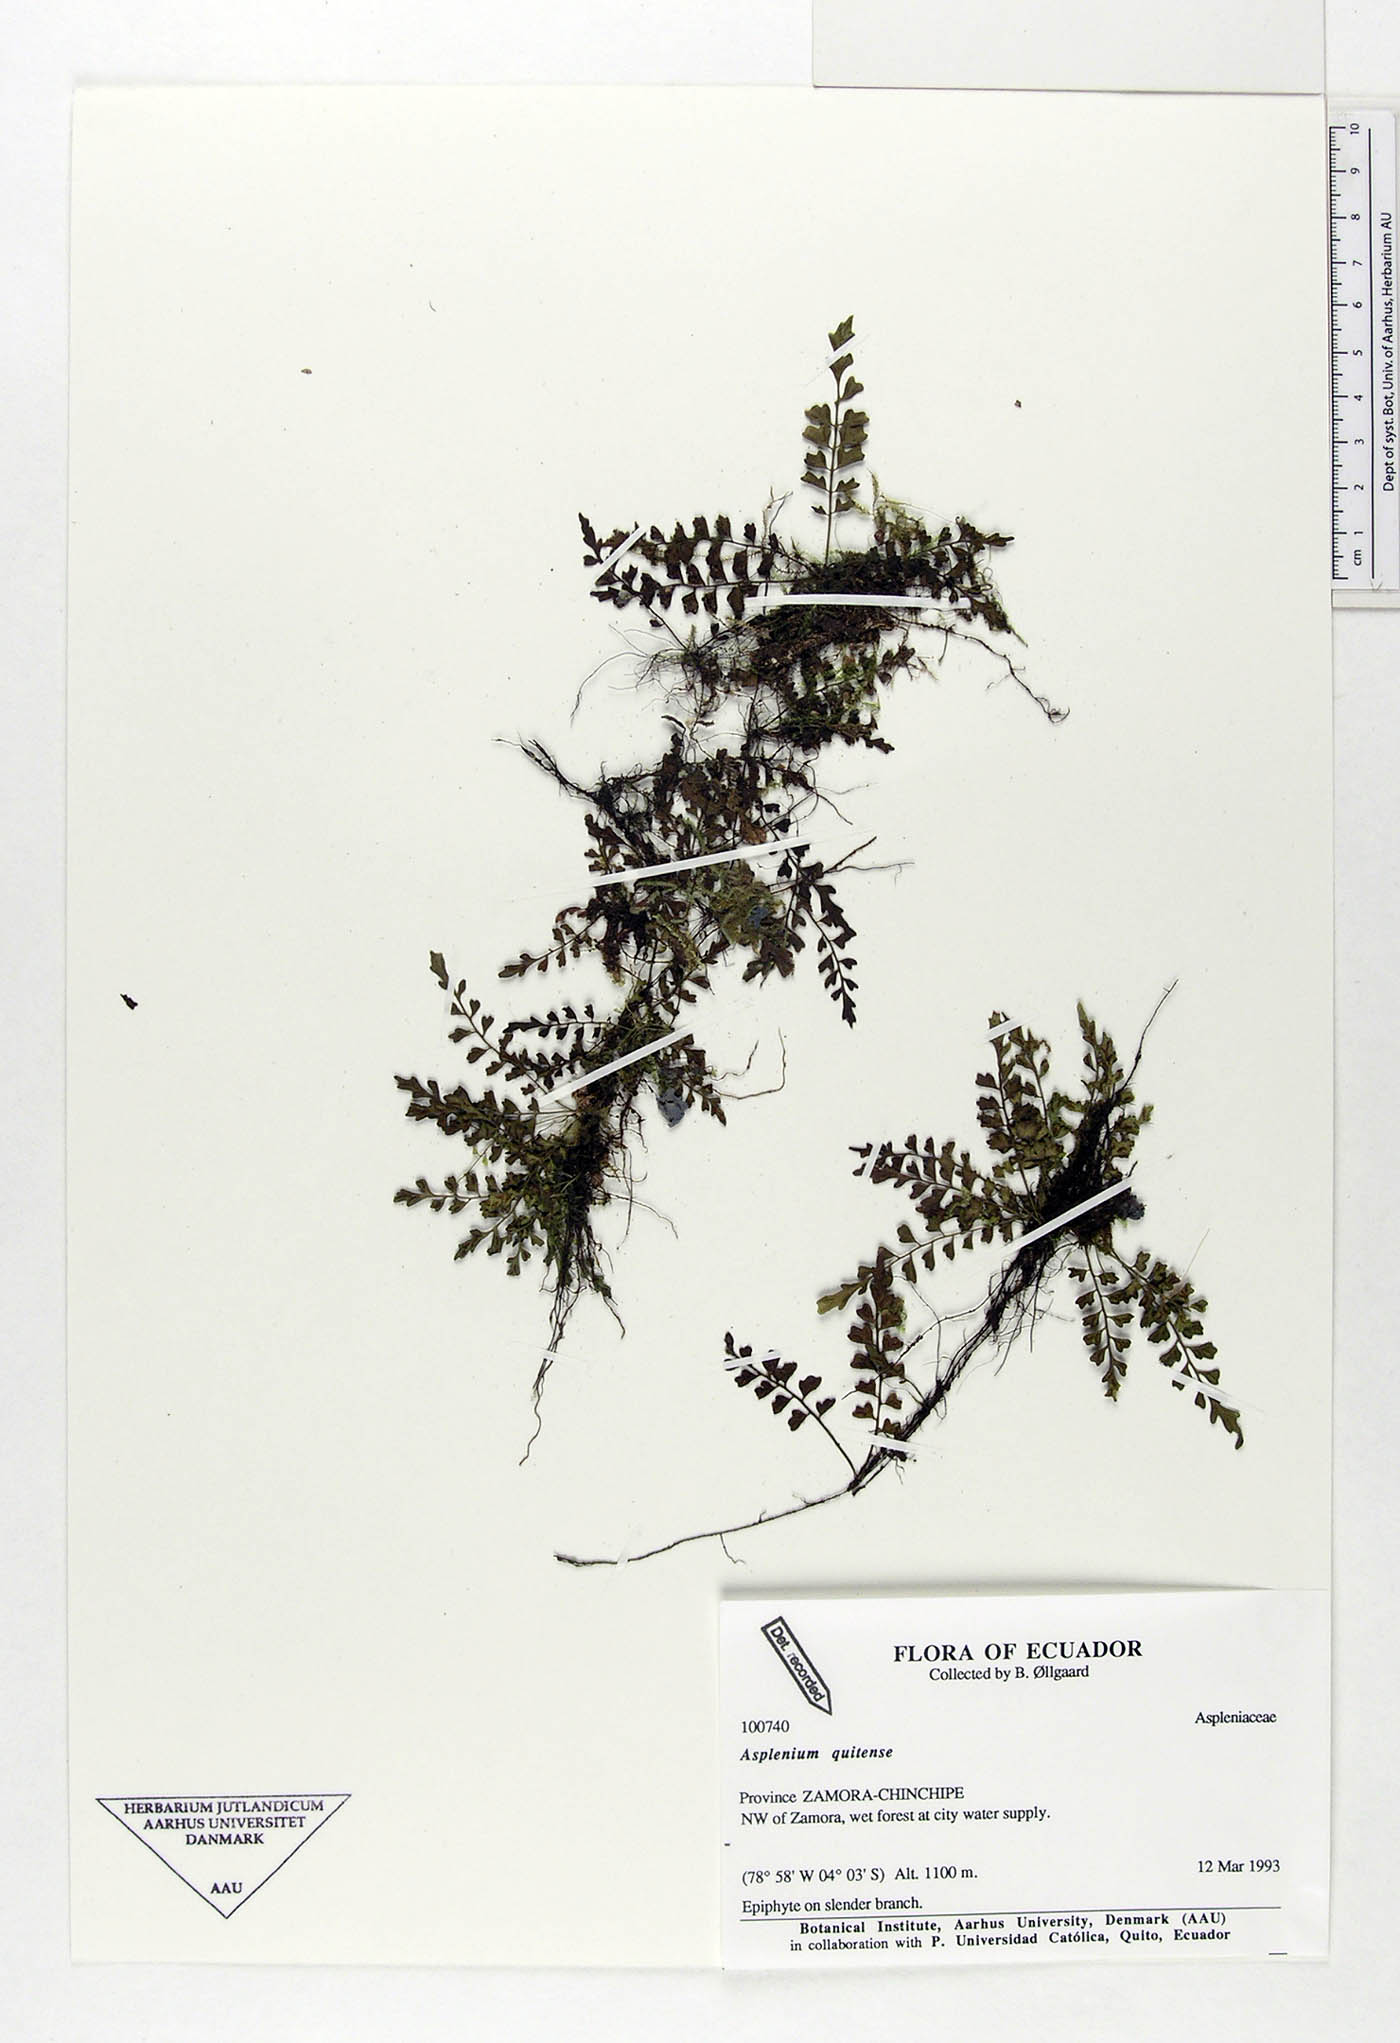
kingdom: Plantae
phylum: Tracheophyta
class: Polypodiopsida
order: Polypodiales
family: Aspleniaceae
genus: Asplenium
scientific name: Asplenium quitense
